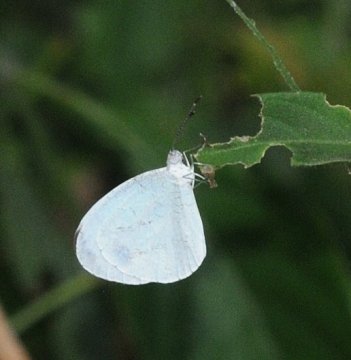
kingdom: Animalia
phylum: Arthropoda
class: Insecta
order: Lepidoptera
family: Pieridae
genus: Leptosia
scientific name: Leptosia alcesta
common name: African Wood White
